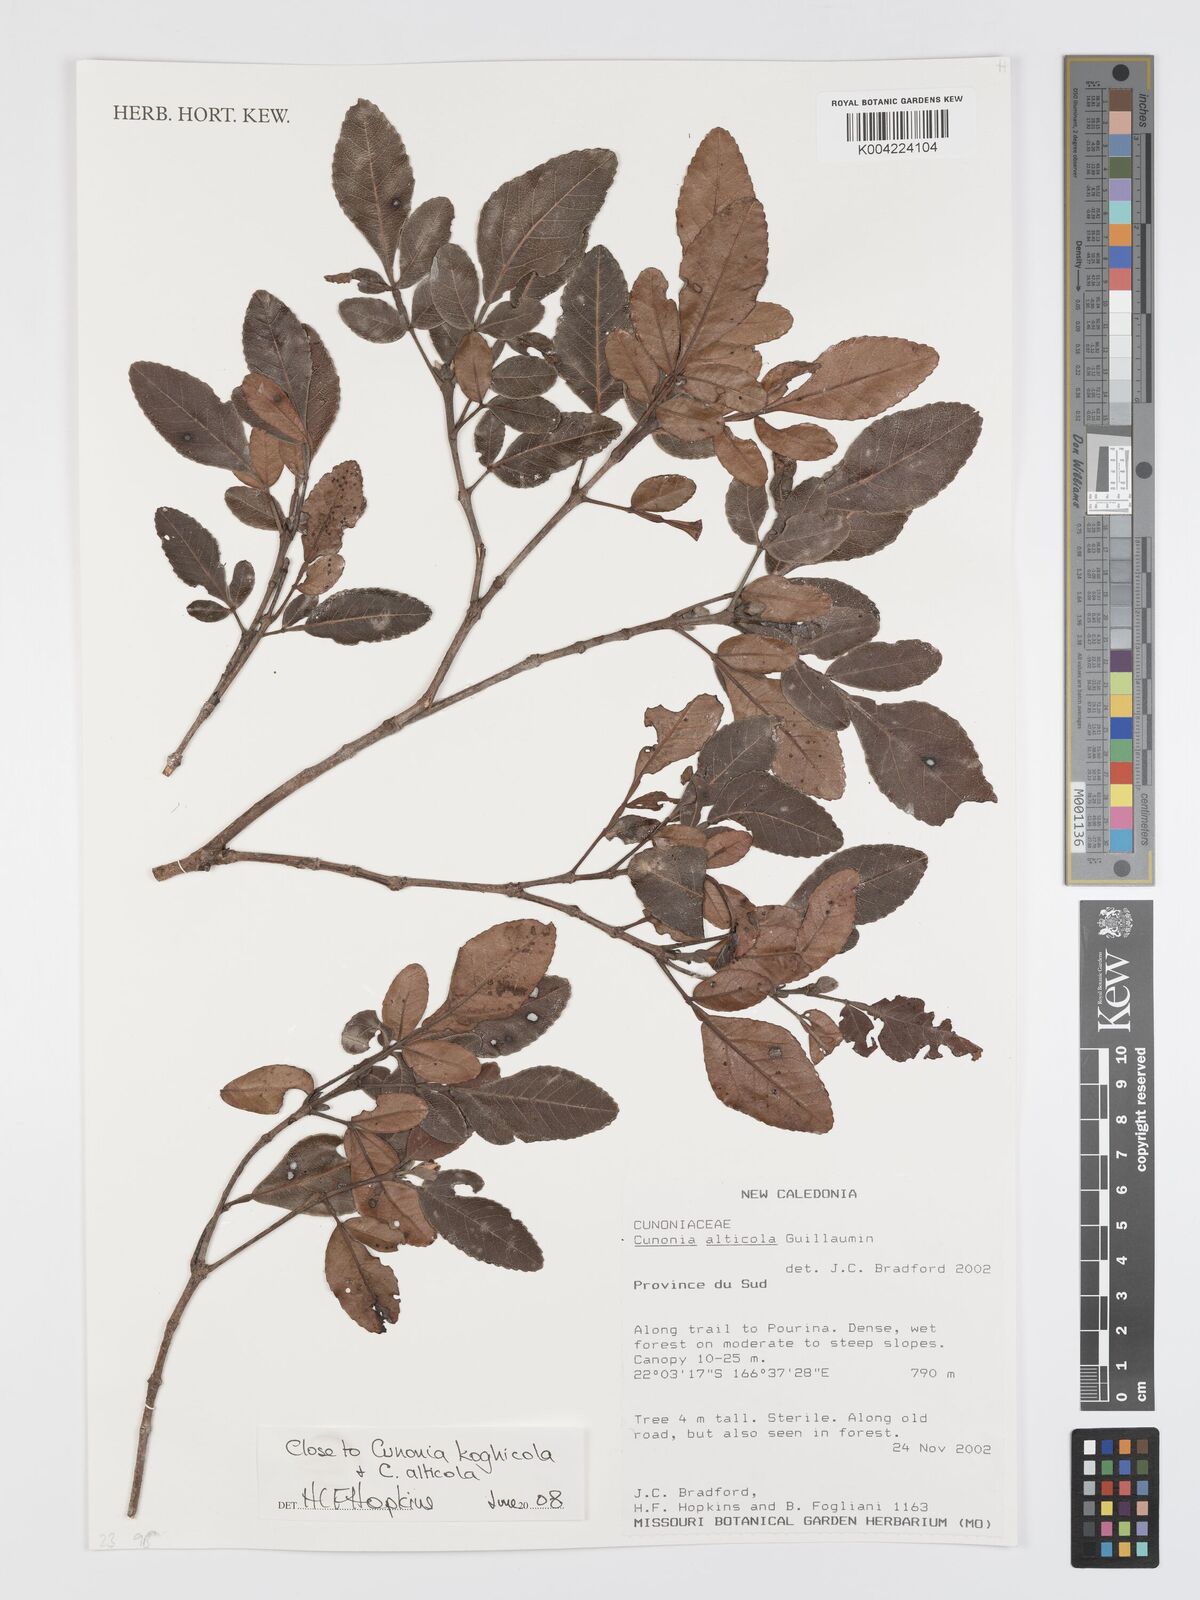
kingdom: Plantae
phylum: Tracheophyta
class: Magnoliopsida
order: Oxalidales
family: Cunoniaceae
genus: Cunonia
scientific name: Cunonia alticola
